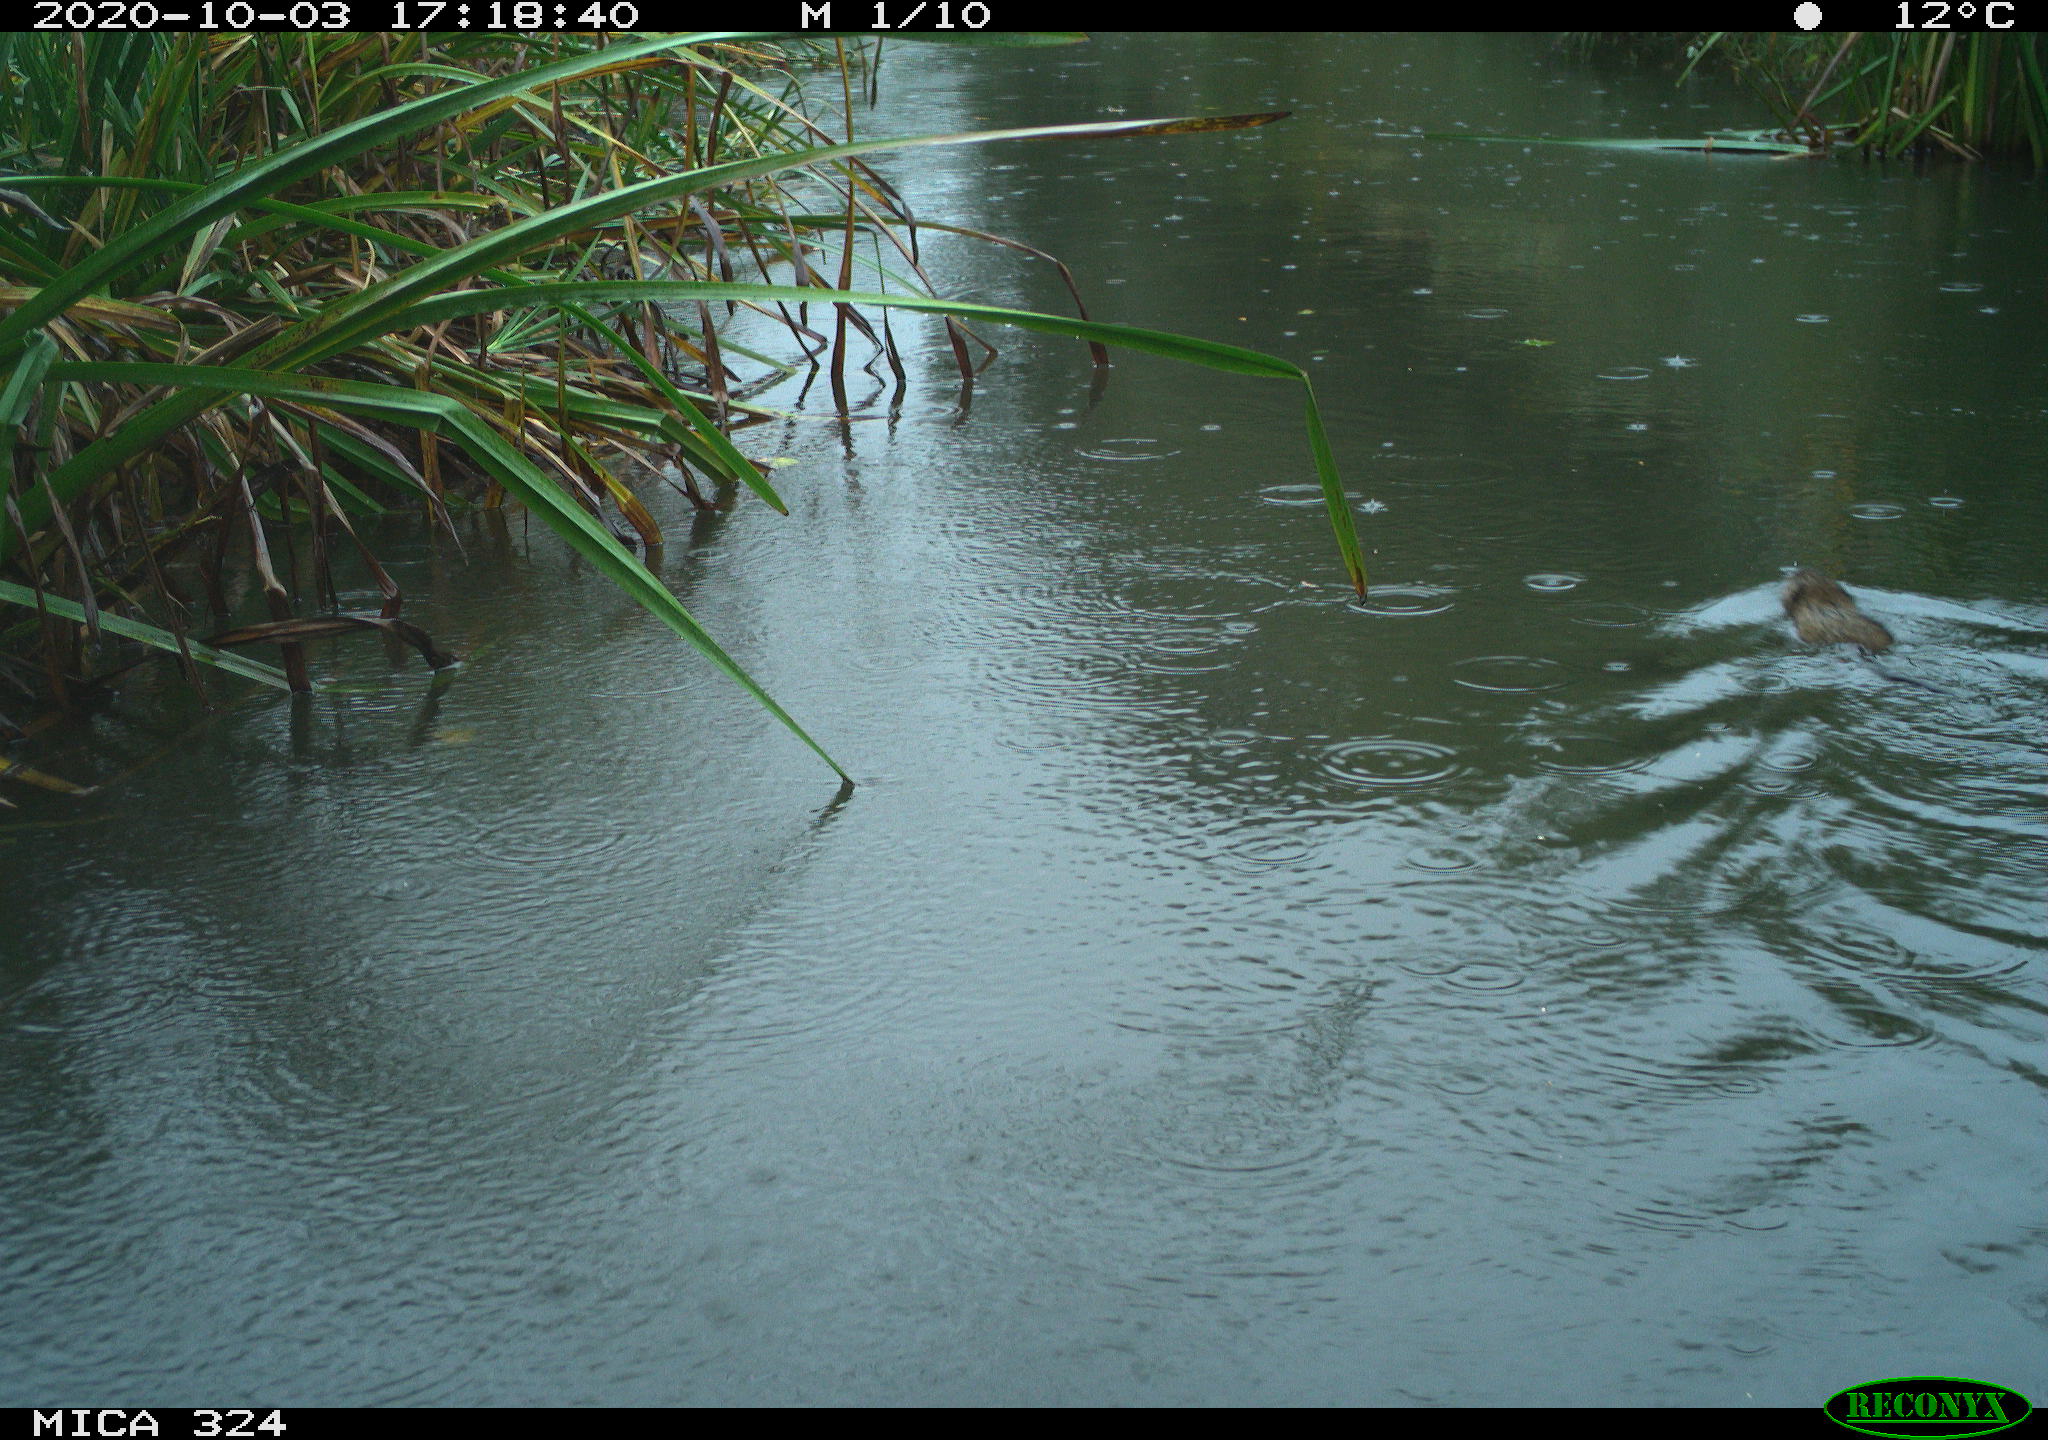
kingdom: Animalia
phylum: Chordata
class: Mammalia
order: Rodentia
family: Cricetidae
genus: Ondatra
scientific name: Ondatra zibethicus
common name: Muskrat
